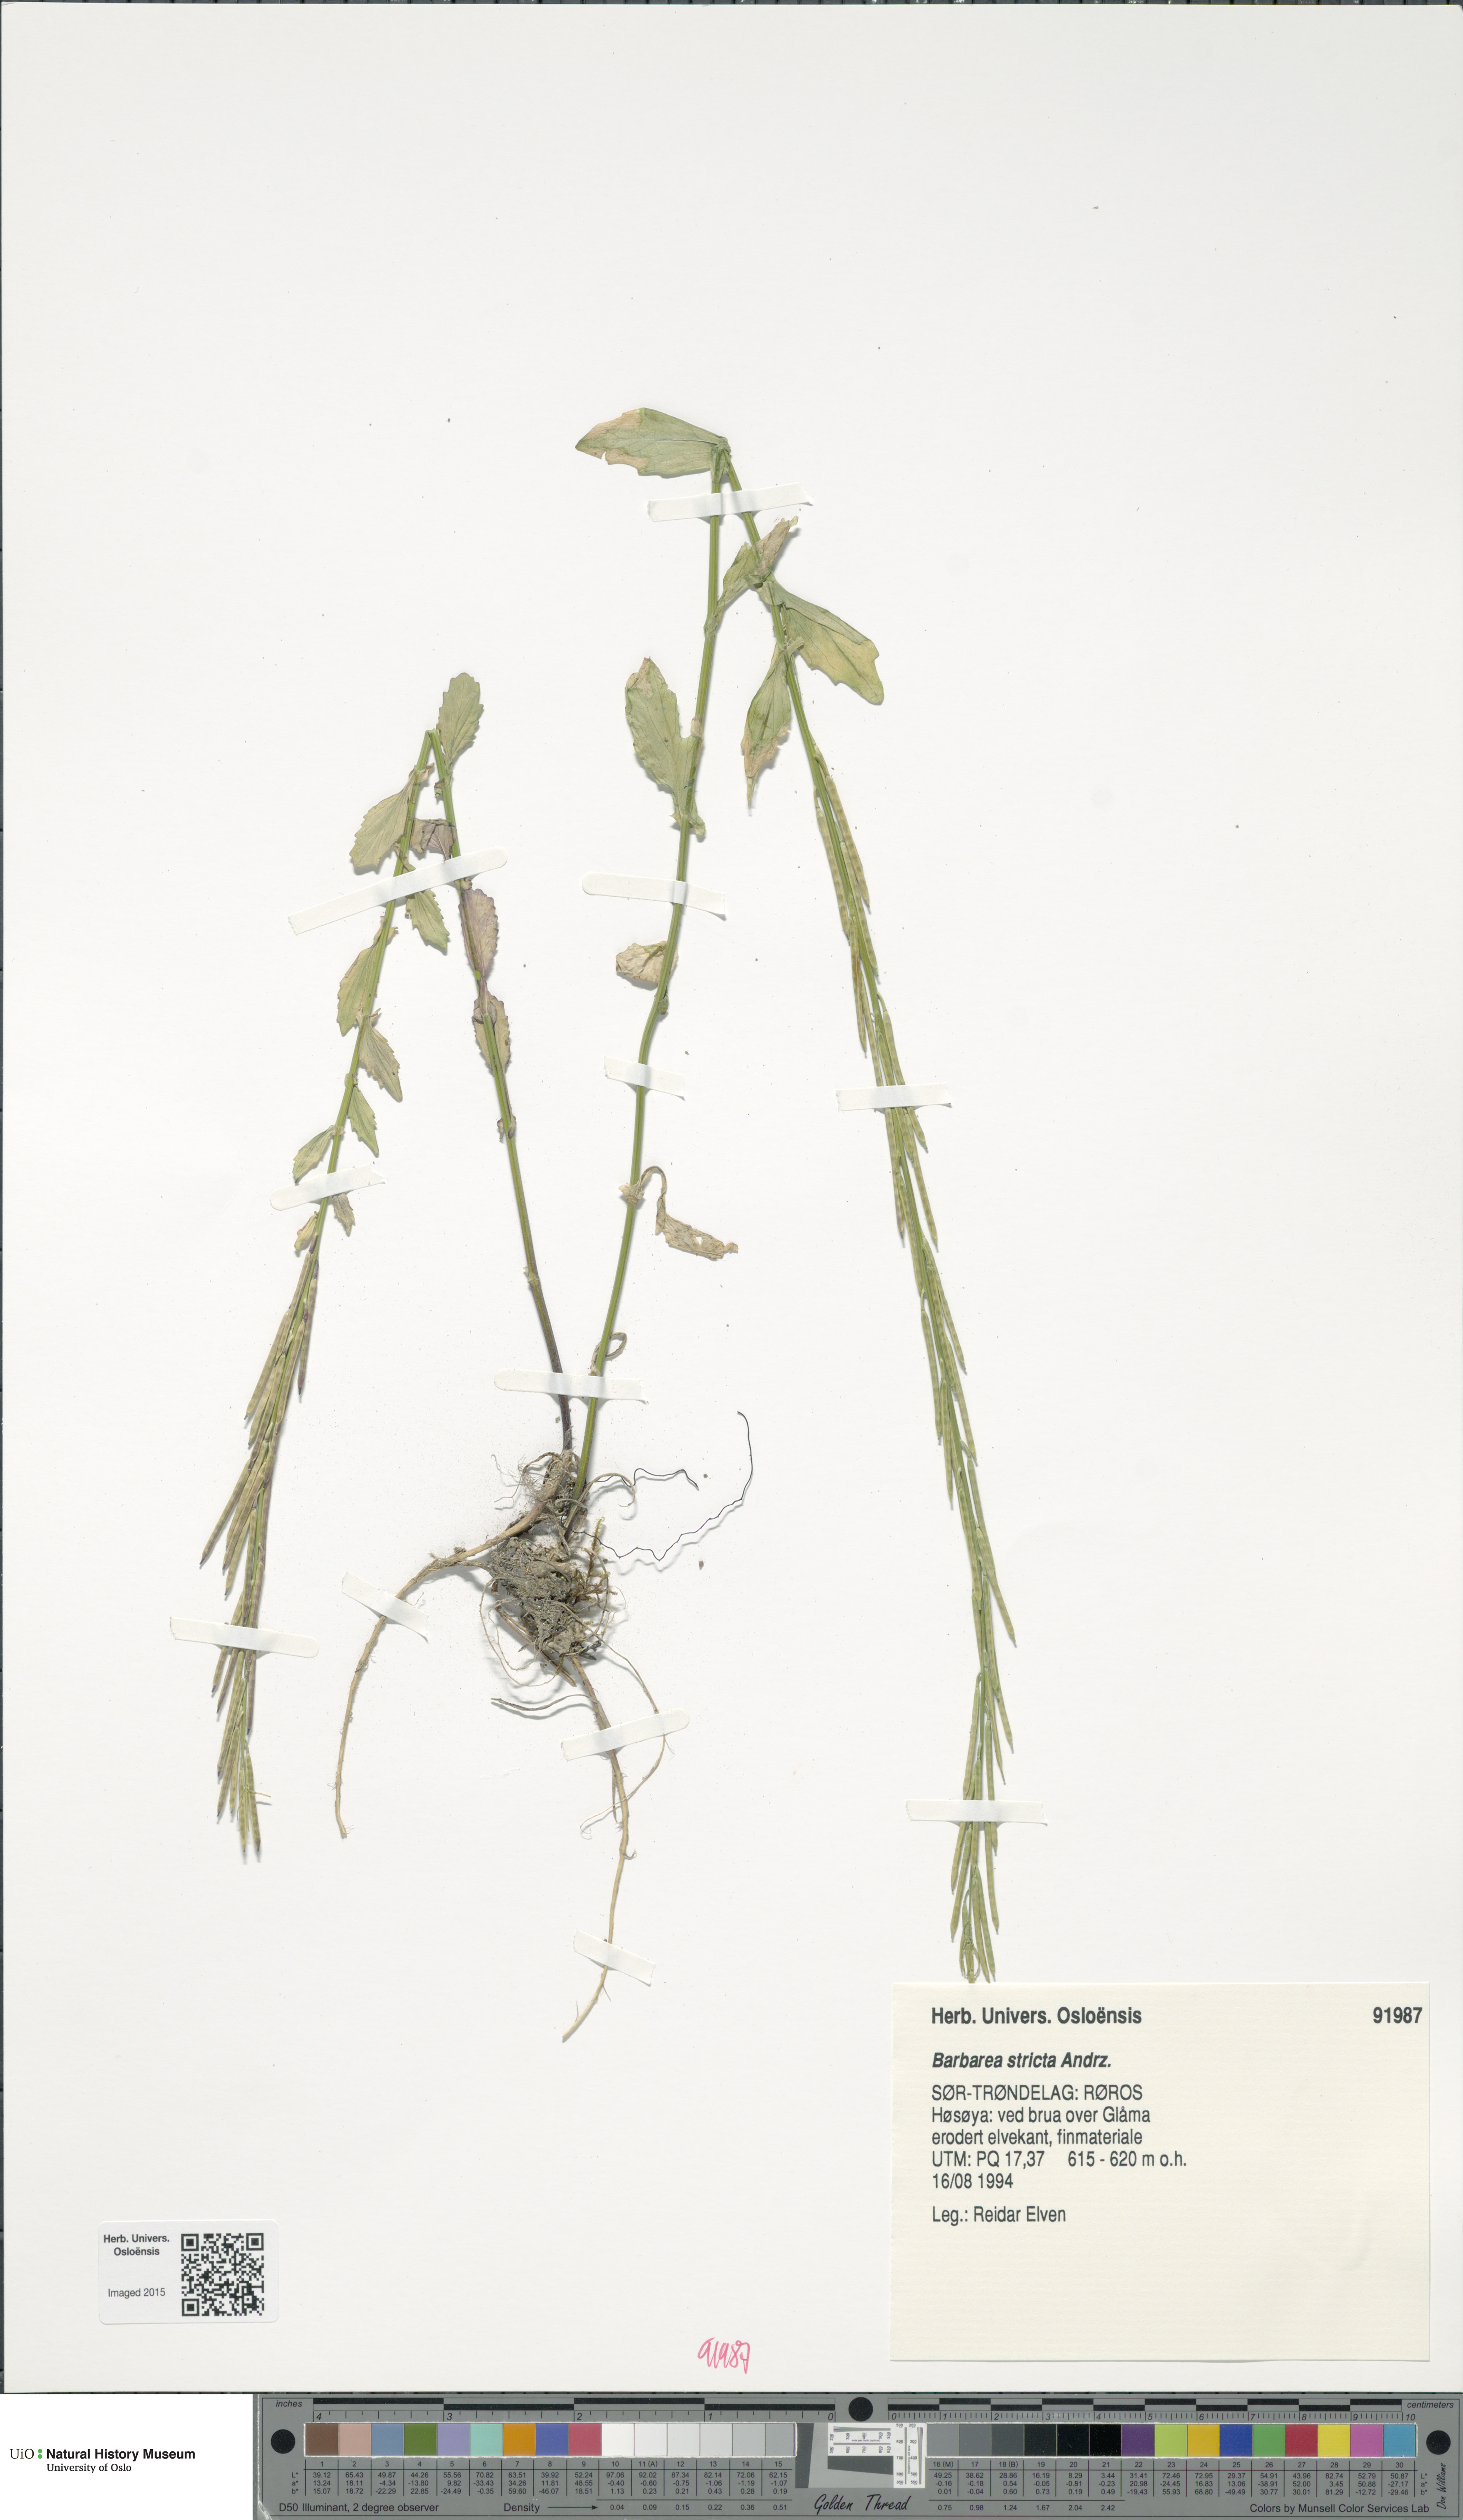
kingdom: Plantae
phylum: Tracheophyta
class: Magnoliopsida
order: Brassicales
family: Brassicaceae
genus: Barbarea
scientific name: Barbarea stricta
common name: Small-flowered winter-cress
